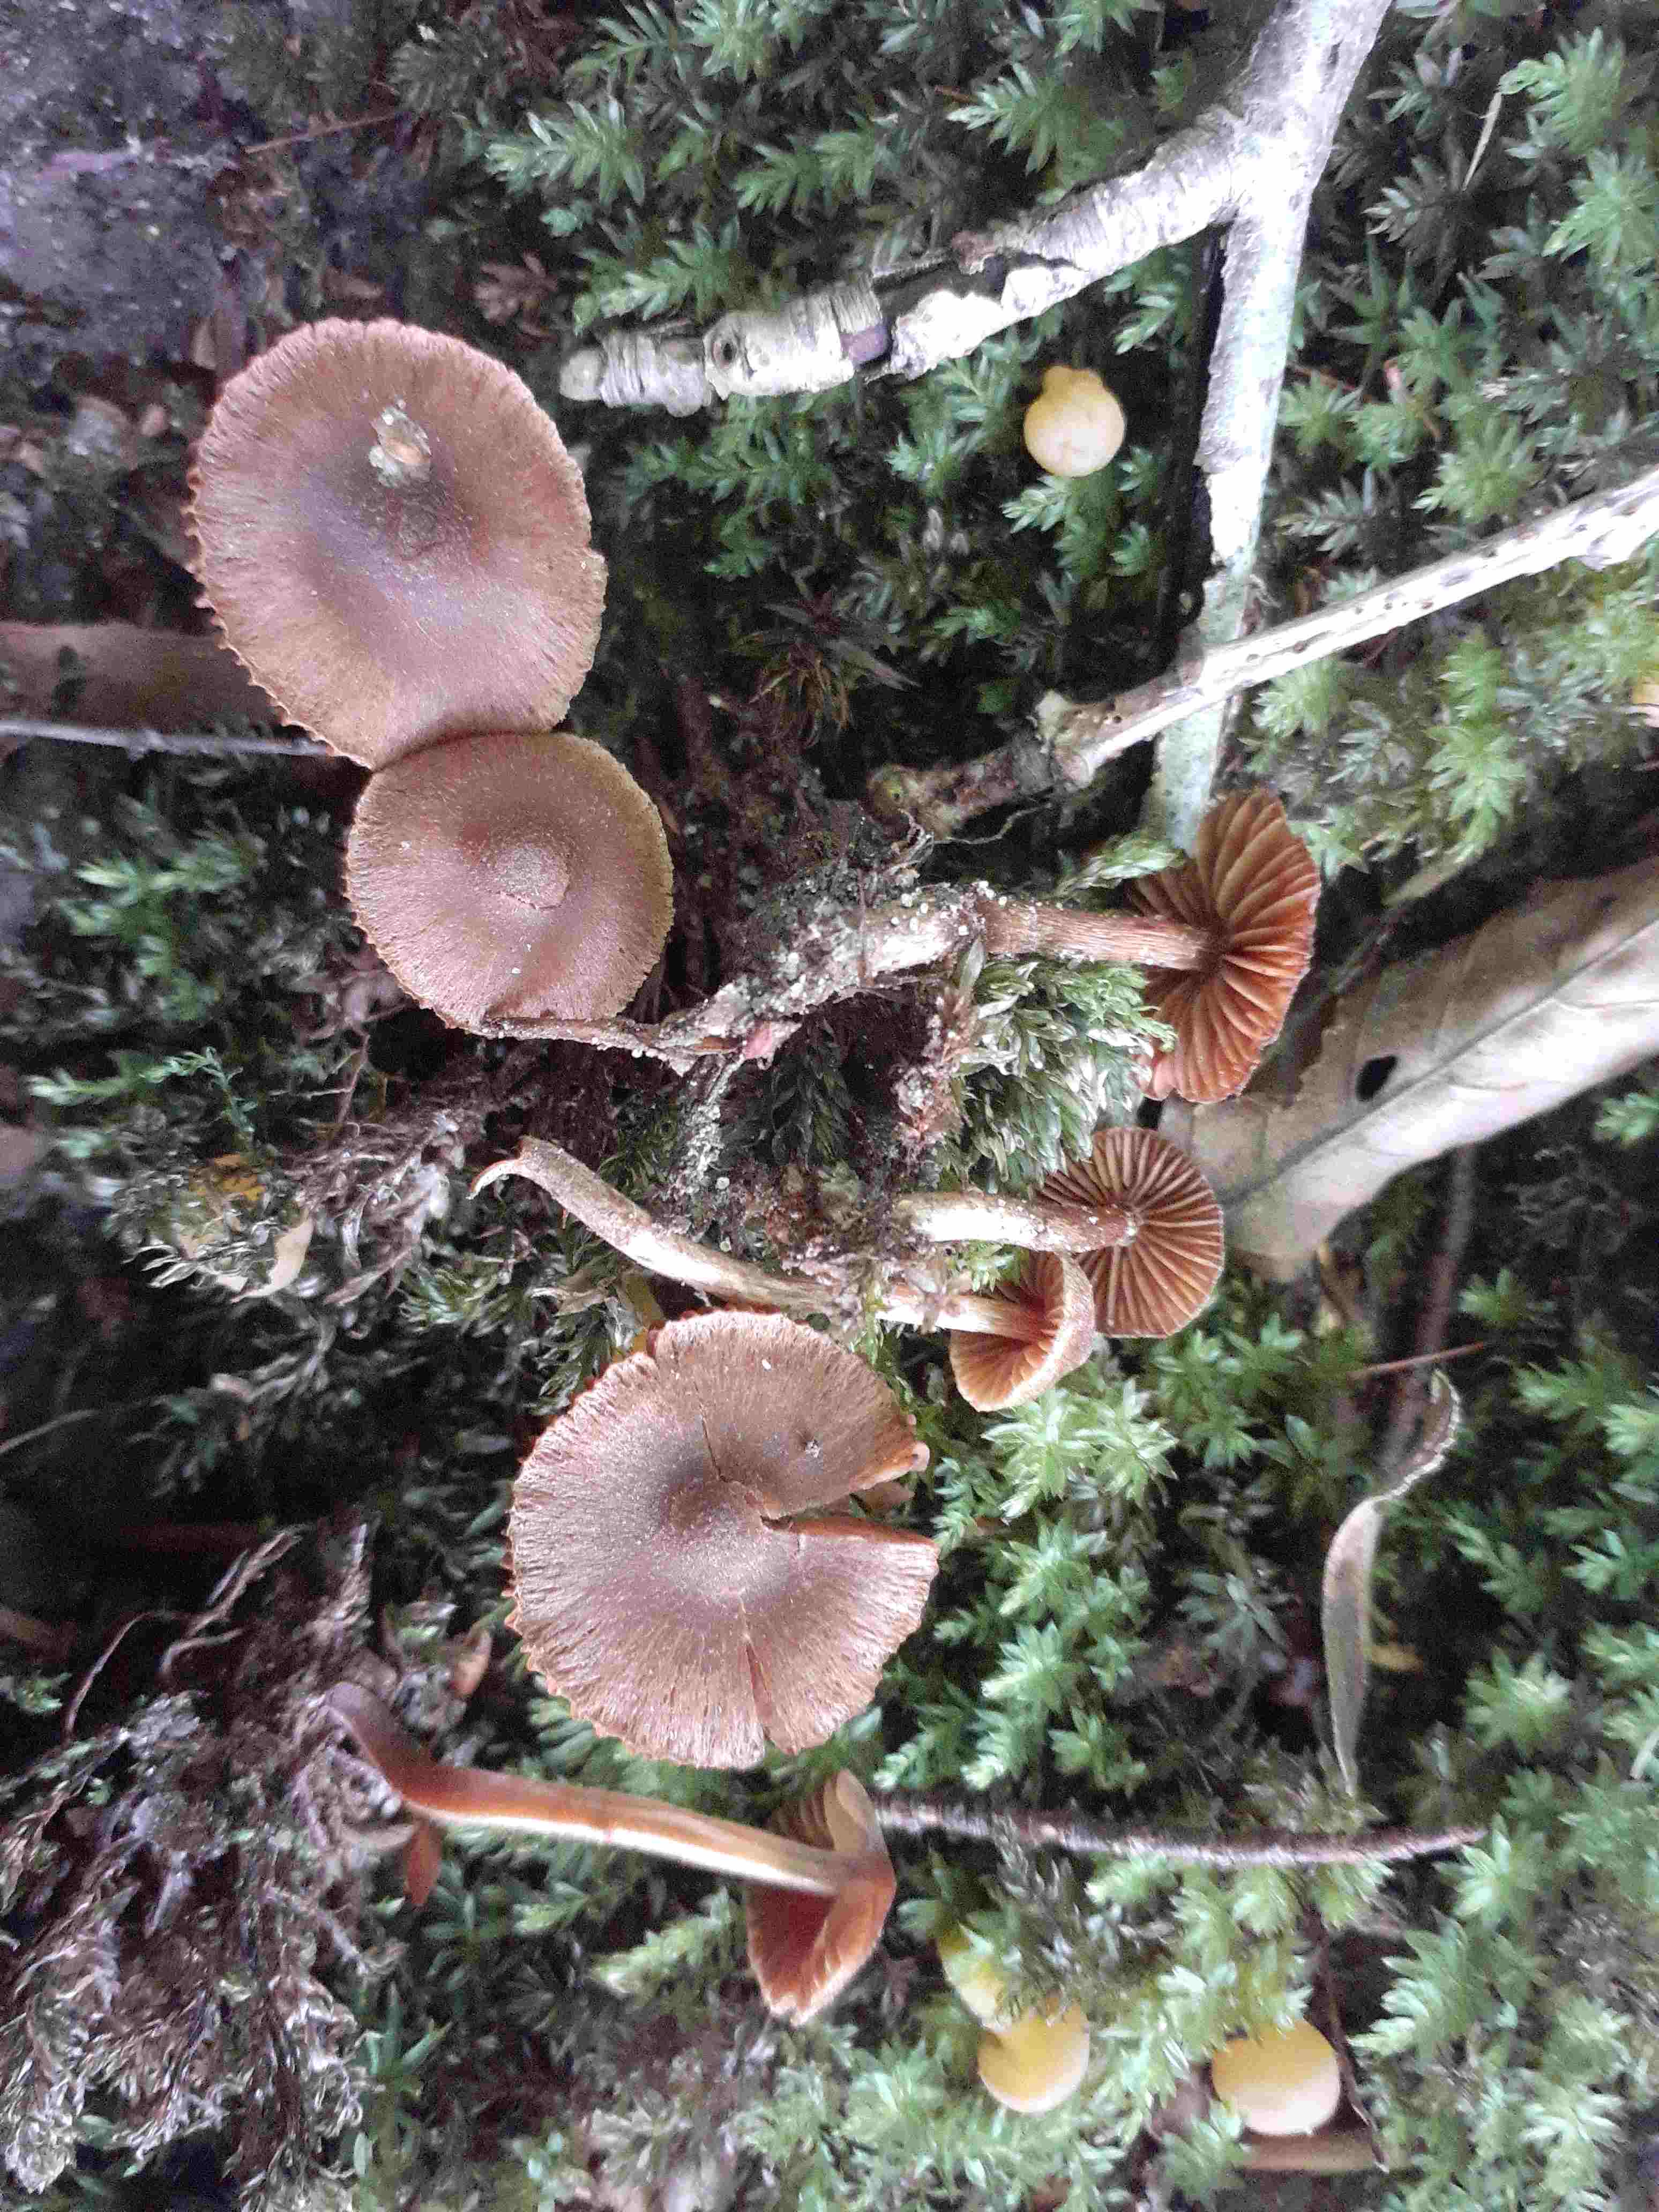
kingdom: Fungi
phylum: Basidiomycota
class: Agaricomycetes
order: Agaricales
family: Cortinariaceae
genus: Cortinarius
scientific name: Cortinarius castaneopallidus
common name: bronzetrævlet slørhat
